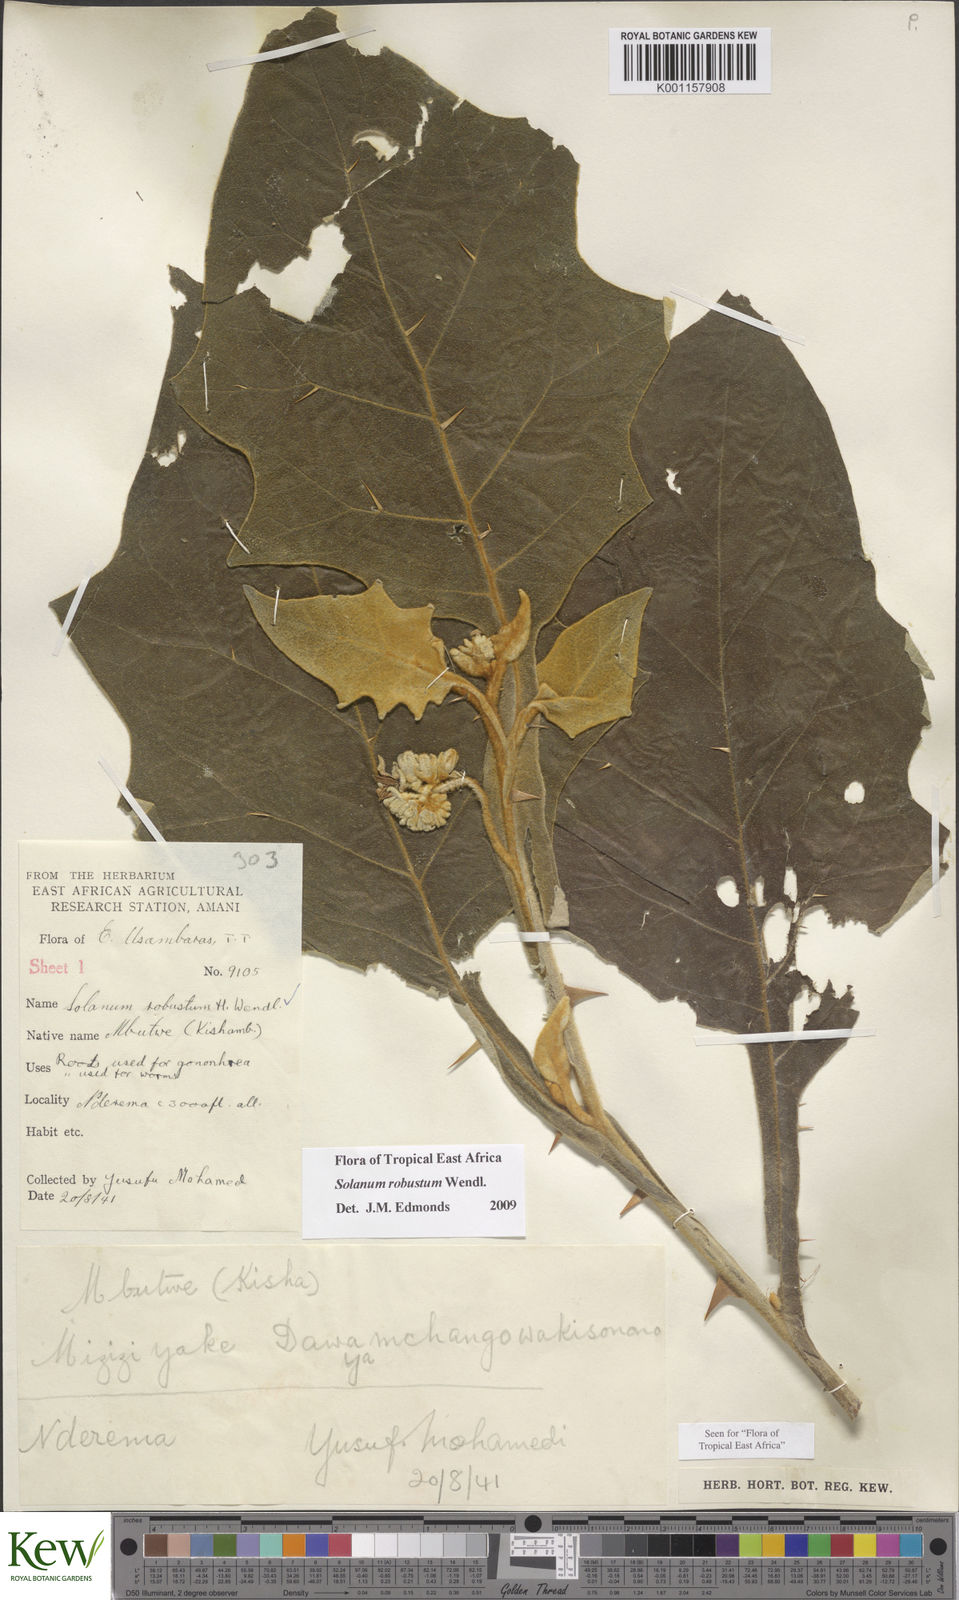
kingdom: Plantae
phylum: Tracheophyta
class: Magnoliopsida
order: Solanales
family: Solanaceae
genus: Solanum
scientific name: Solanum robustum
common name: Shrubby nightshade
